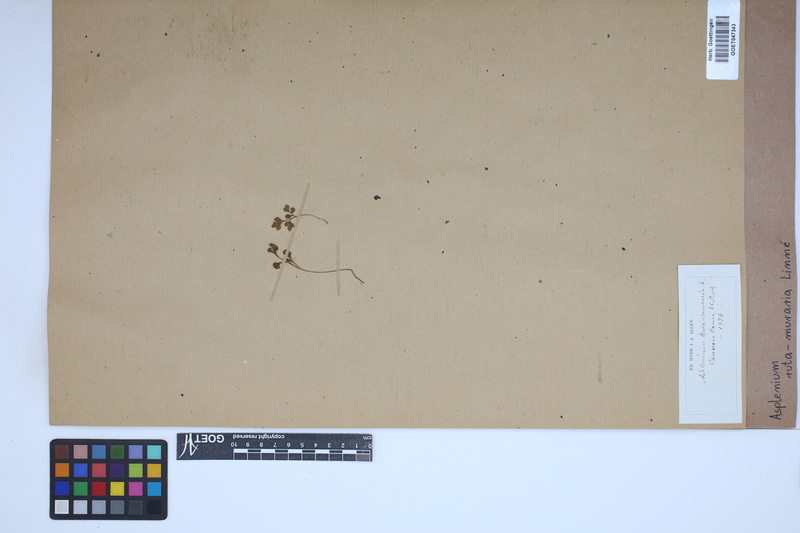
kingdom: Plantae
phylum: Tracheophyta
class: Polypodiopsida
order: Polypodiales
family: Aspleniaceae
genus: Asplenium
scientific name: Asplenium ruta-muraria
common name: Wall-rue
